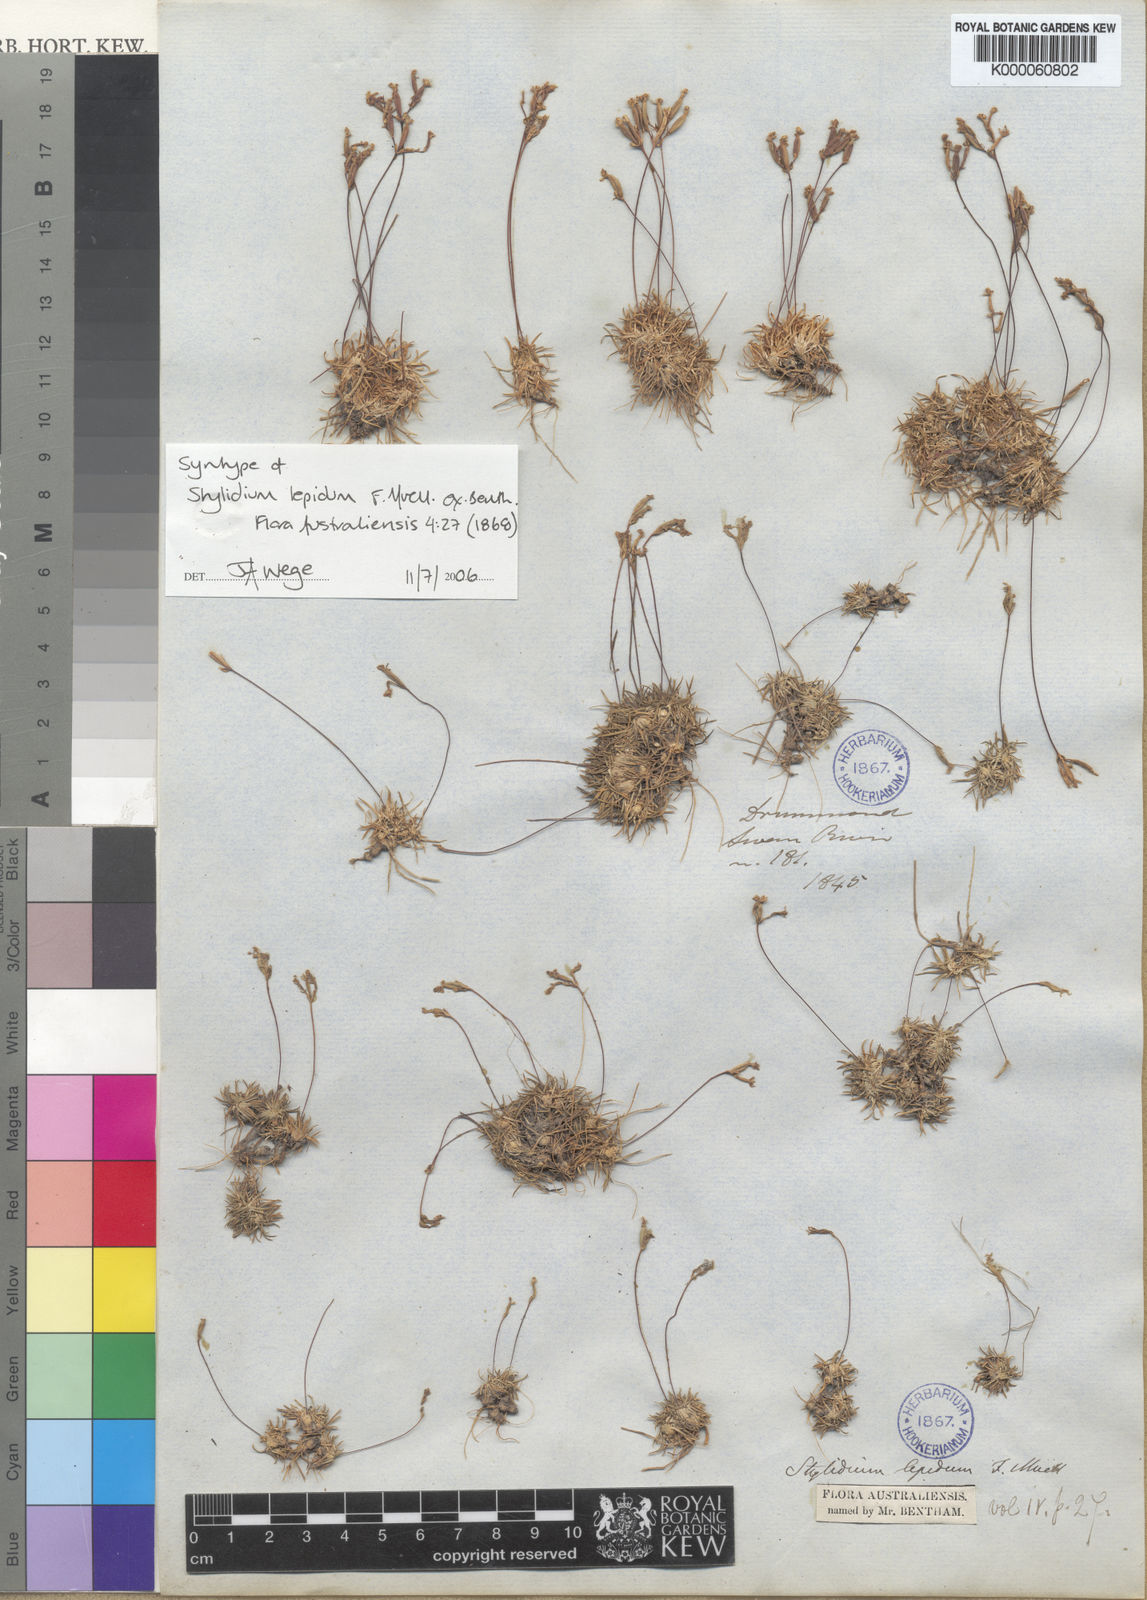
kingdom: Plantae
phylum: Tracheophyta
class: Magnoliopsida
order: Asterales
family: Stylidiaceae
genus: Stylidium
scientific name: Stylidium lepidum
